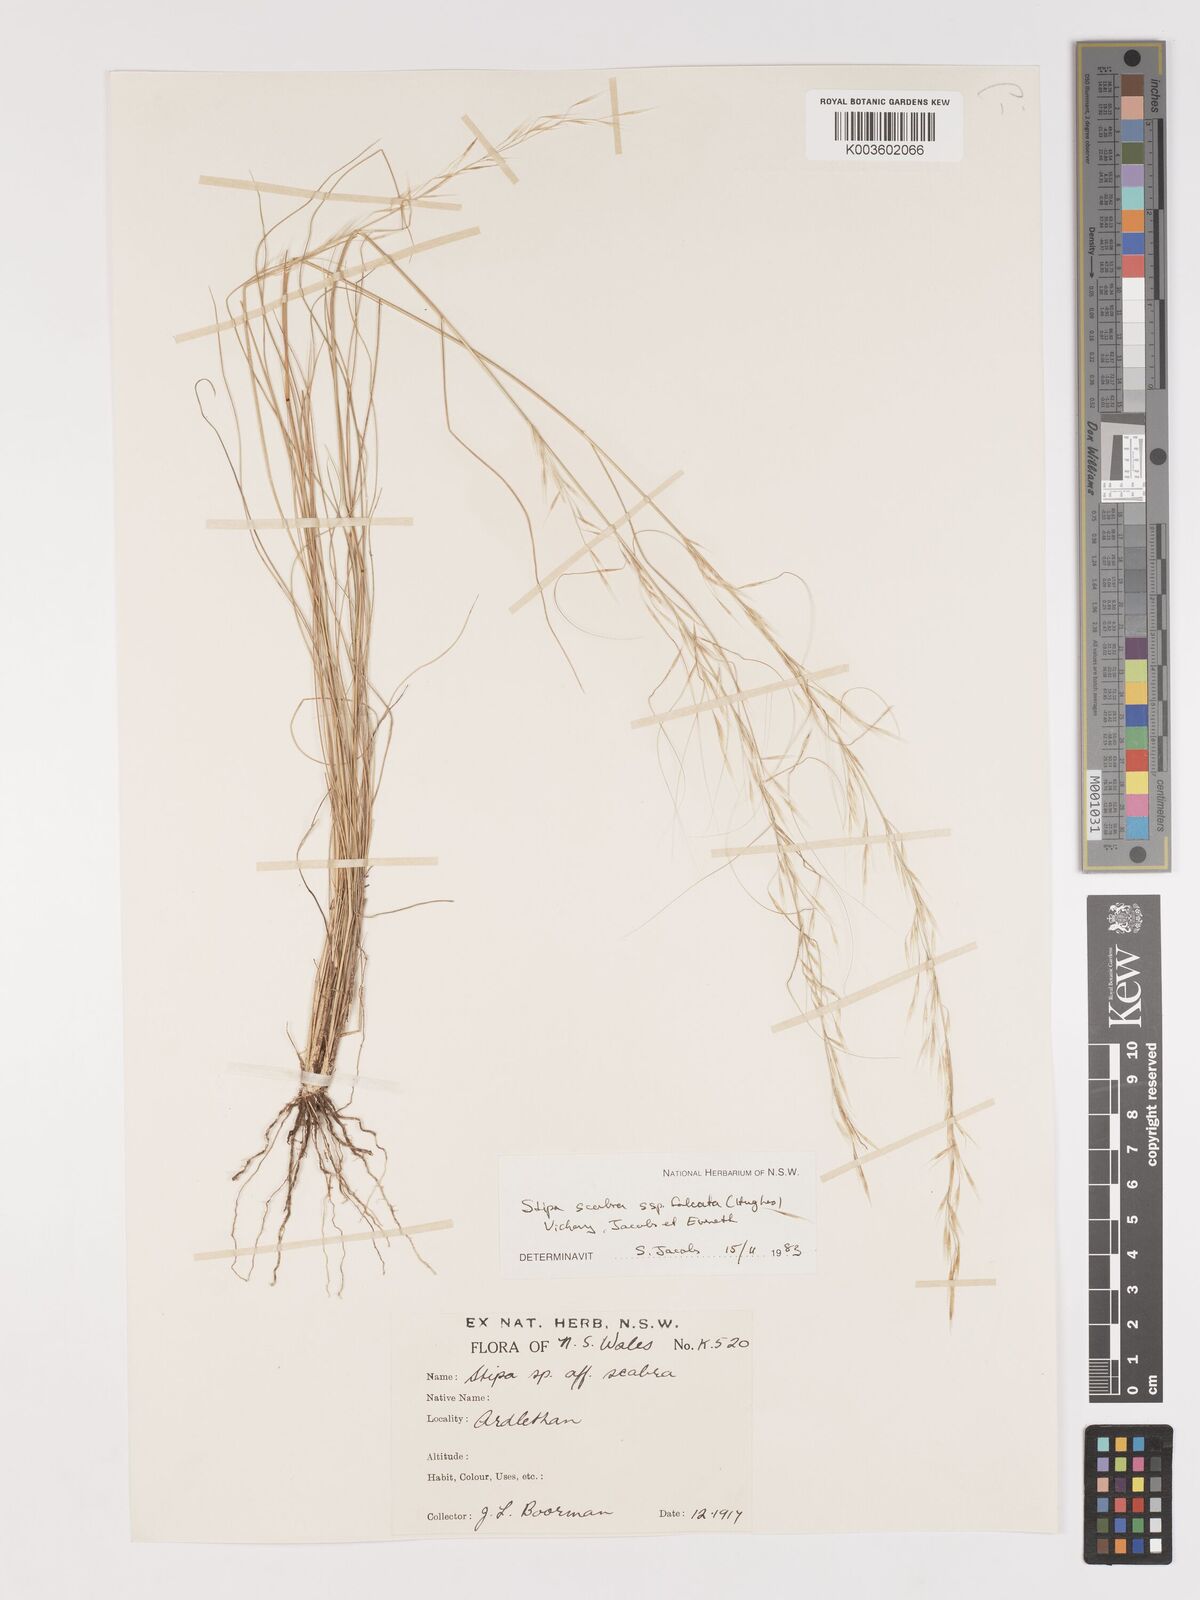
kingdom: Plantae
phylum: Tracheophyta
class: Liliopsida
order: Poales
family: Poaceae
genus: Austrostipa
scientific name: Austrostipa scabra
